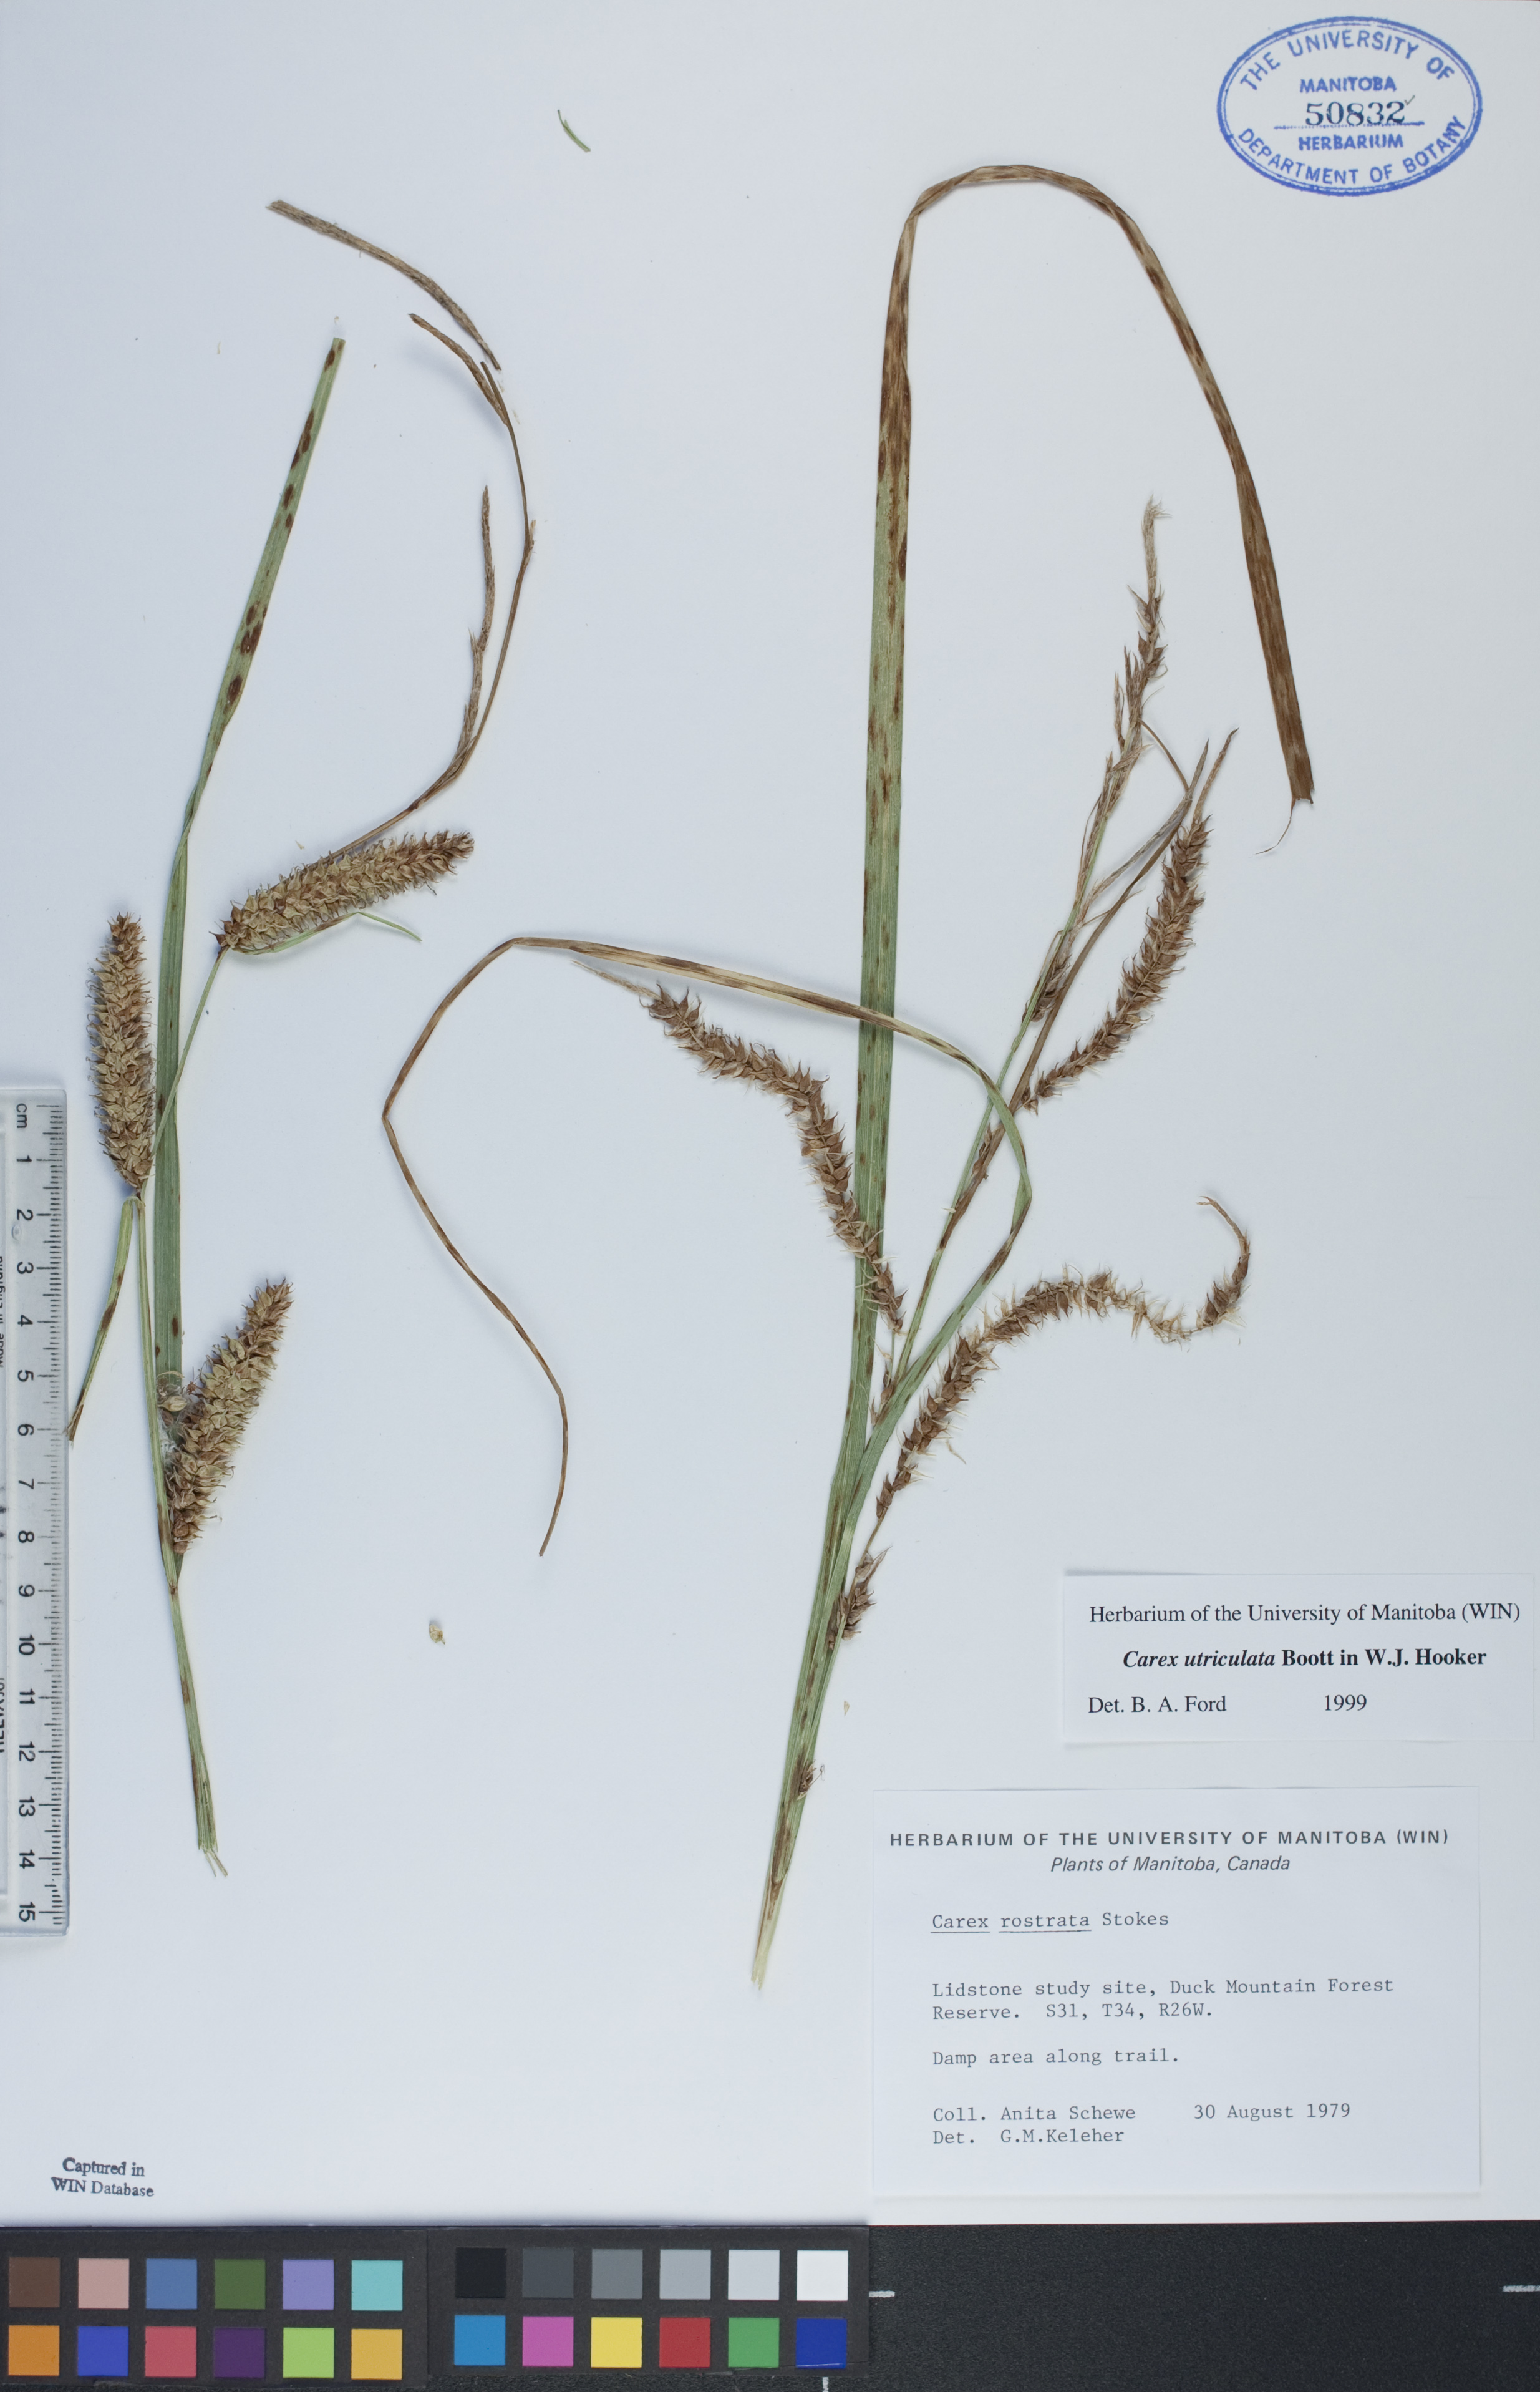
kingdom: Plantae
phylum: Tracheophyta
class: Liliopsida
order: Poales
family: Cyperaceae
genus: Carex
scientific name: Carex utriculata
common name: Beaked sedge
